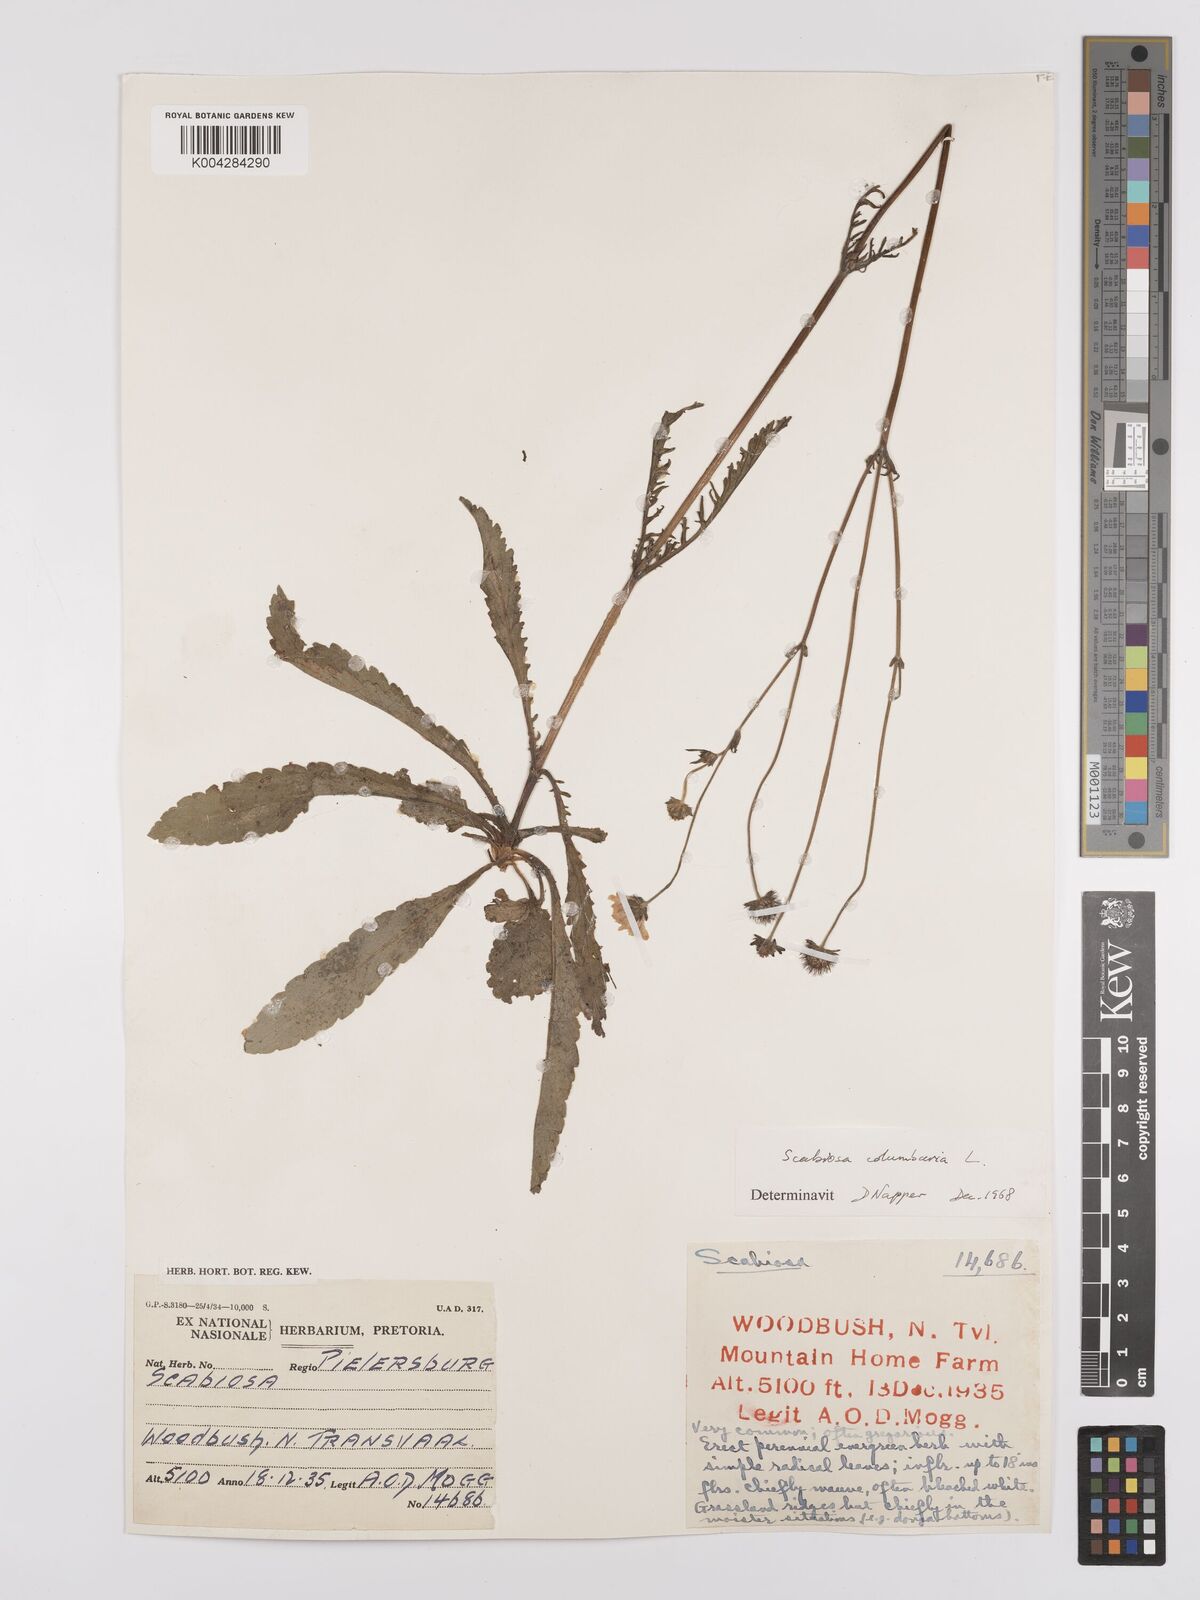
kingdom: Plantae
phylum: Tracheophyta
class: Magnoliopsida
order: Dipsacales
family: Caprifoliaceae
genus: Scabiosa
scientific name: Scabiosa columbaria
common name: Small scabious
